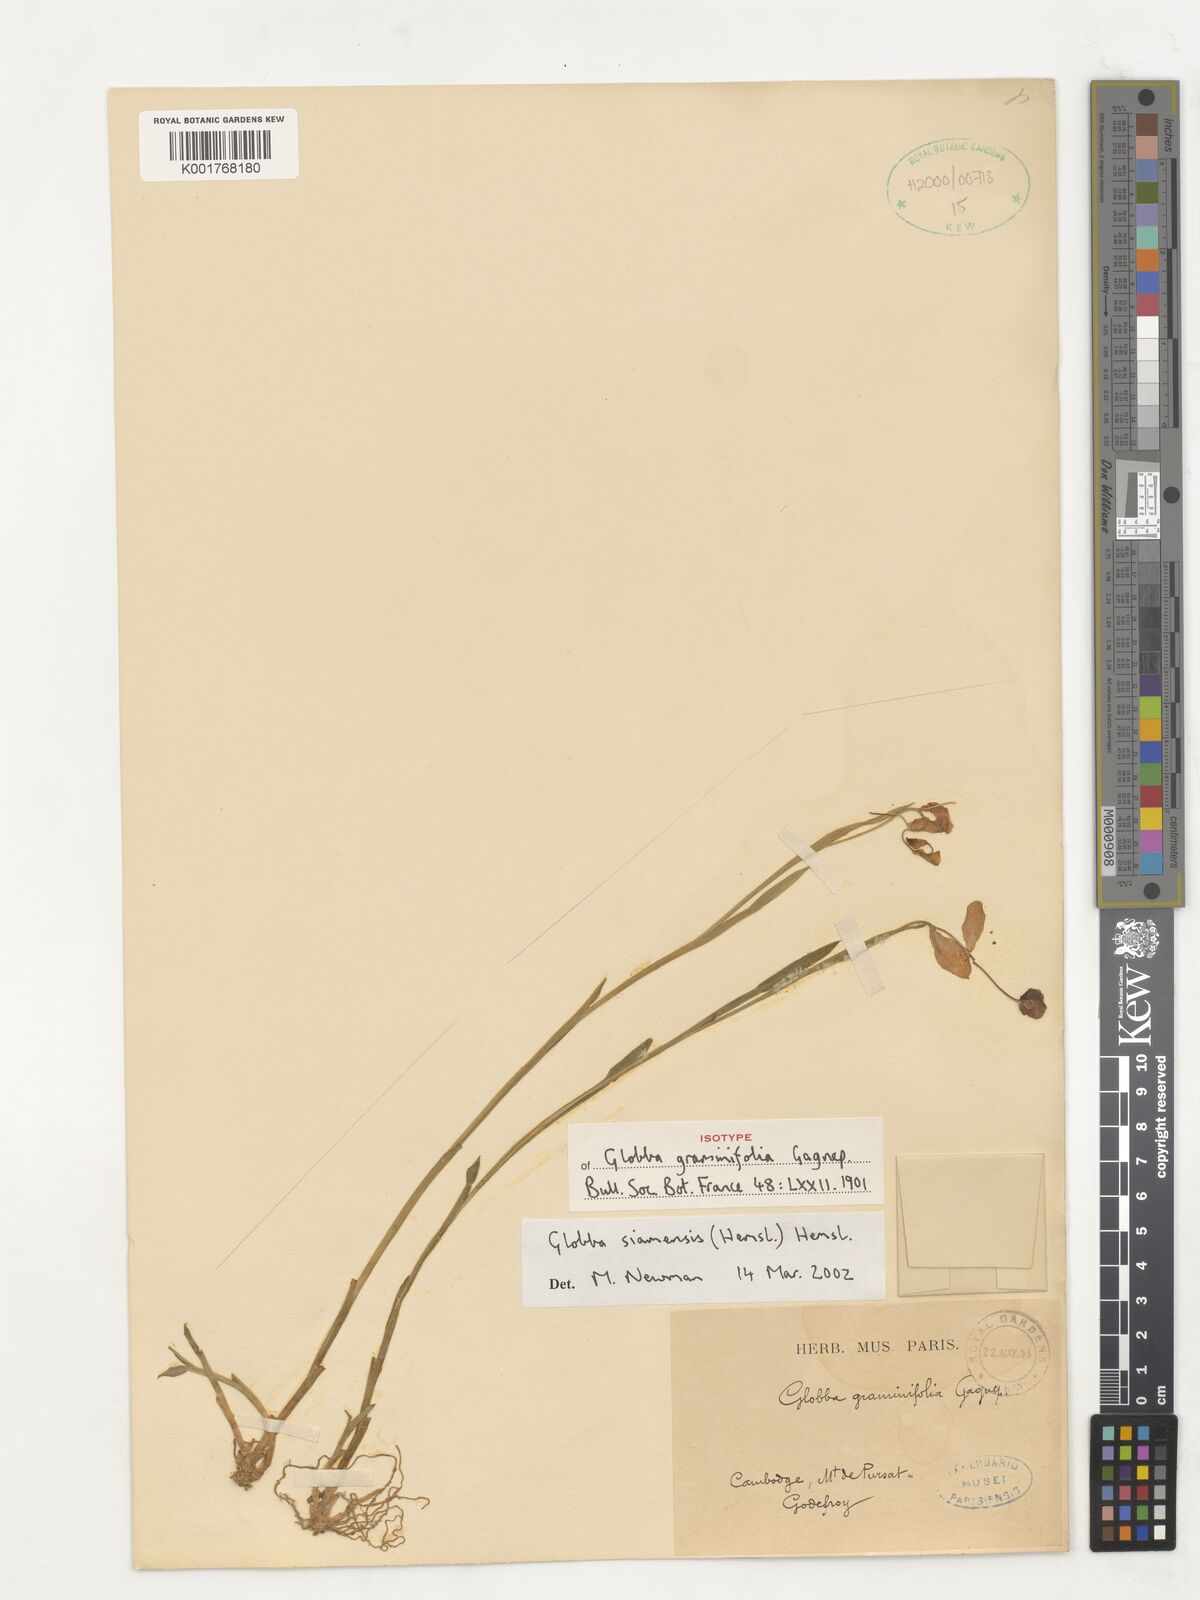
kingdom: Plantae
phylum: Tracheophyta
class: Liliopsida
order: Zingiberales
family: Zingiberaceae
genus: Globba
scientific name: Globba siamensis
